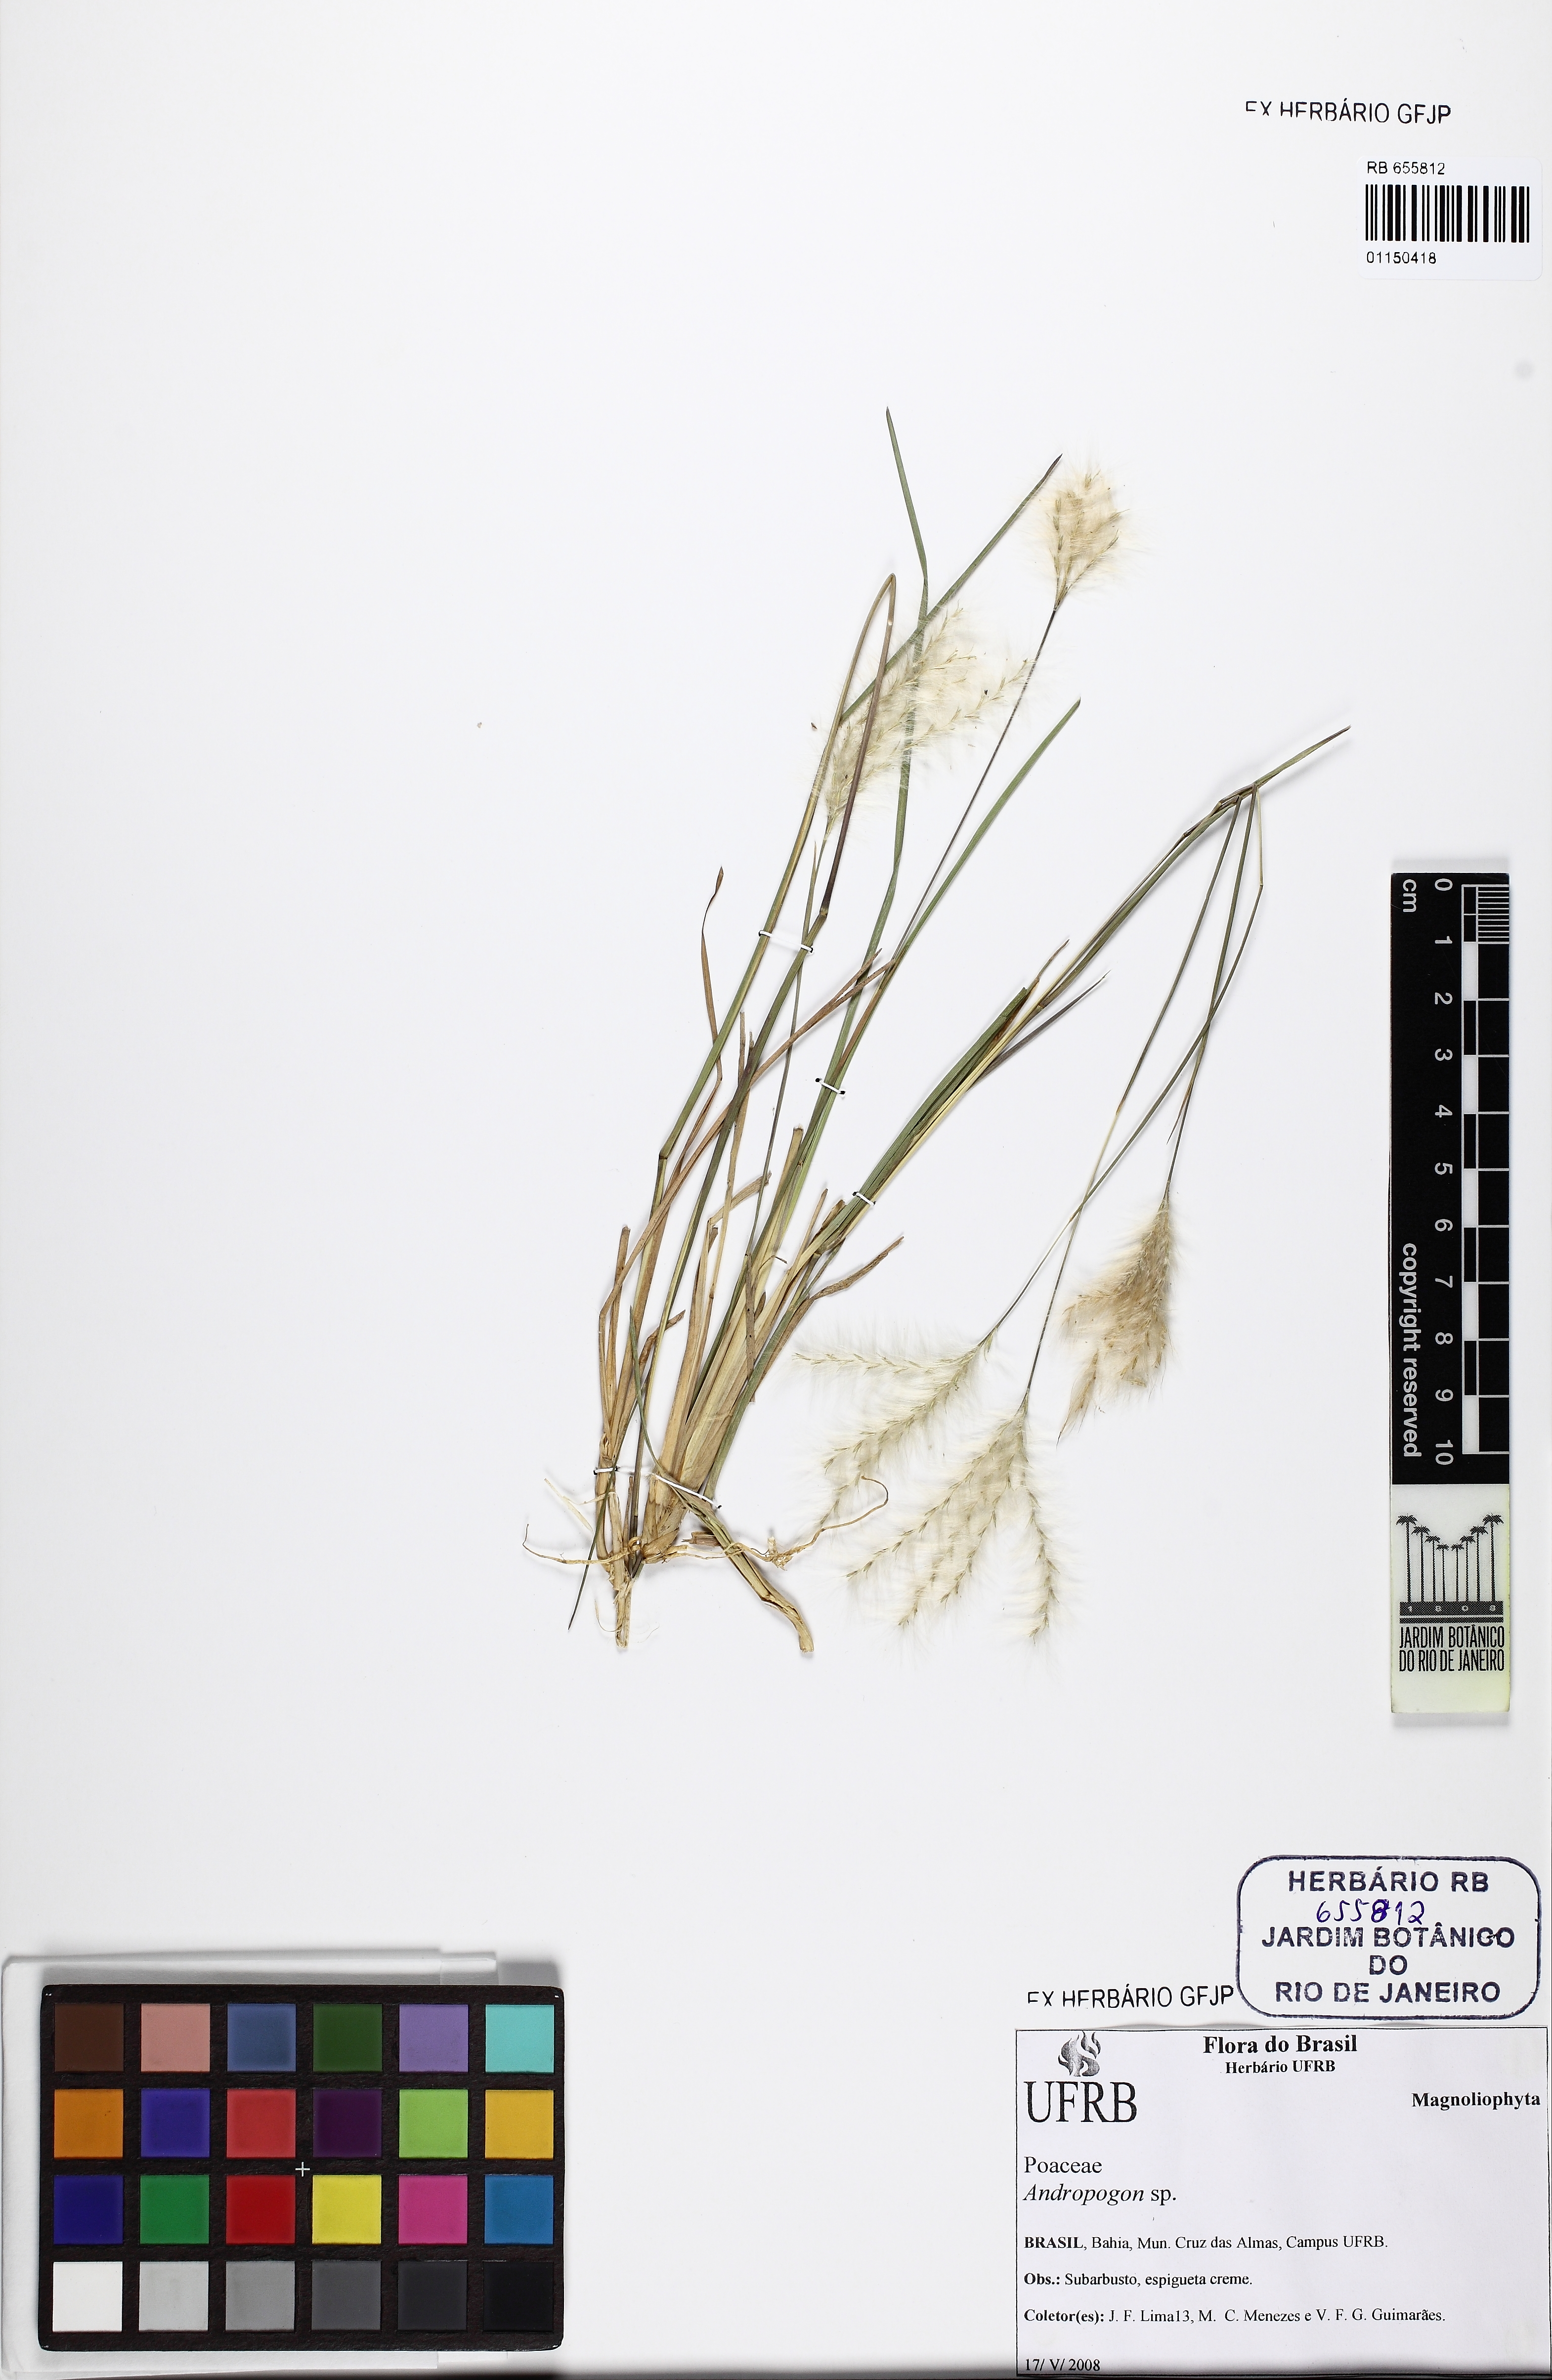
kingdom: Plantae
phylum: Tracheophyta
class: Liliopsida
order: Poales
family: Poaceae
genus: Andropogon
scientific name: Andropogon
